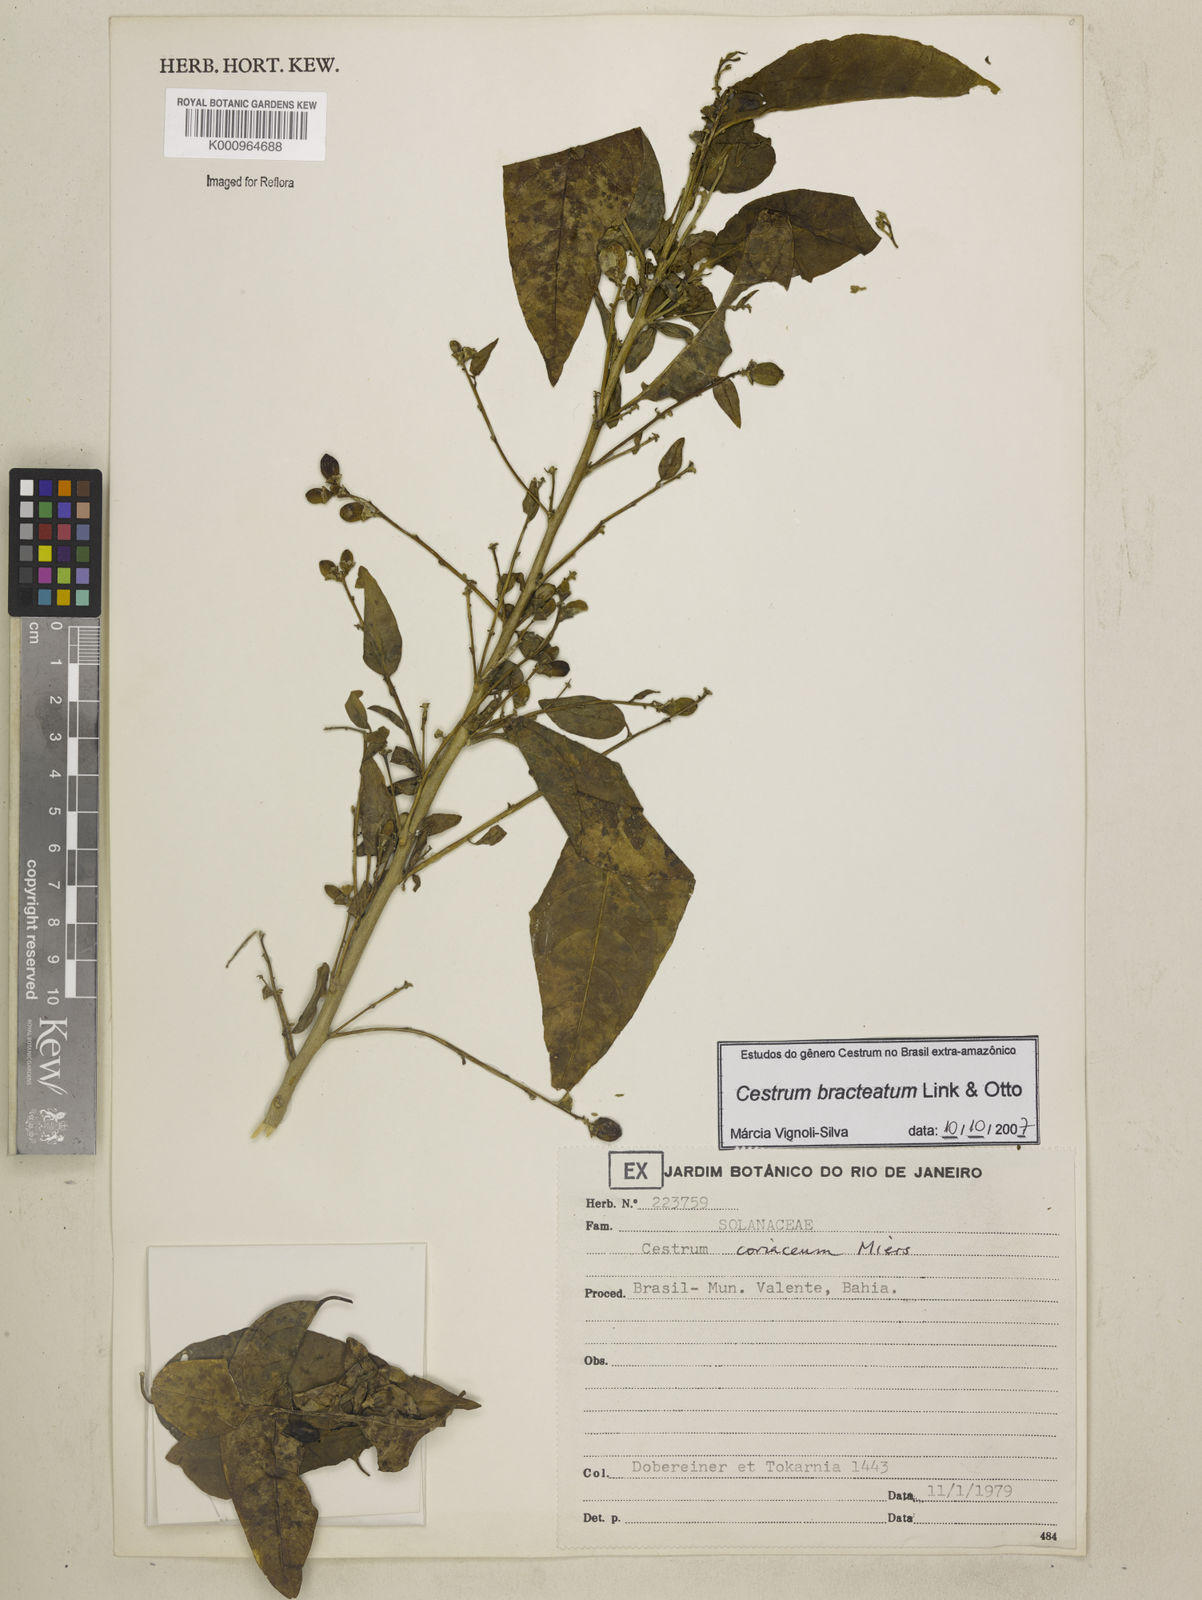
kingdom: Plantae
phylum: Tracheophyta
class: Magnoliopsida
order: Solanales
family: Solanaceae
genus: Cestrum
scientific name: Cestrum bracteatum
